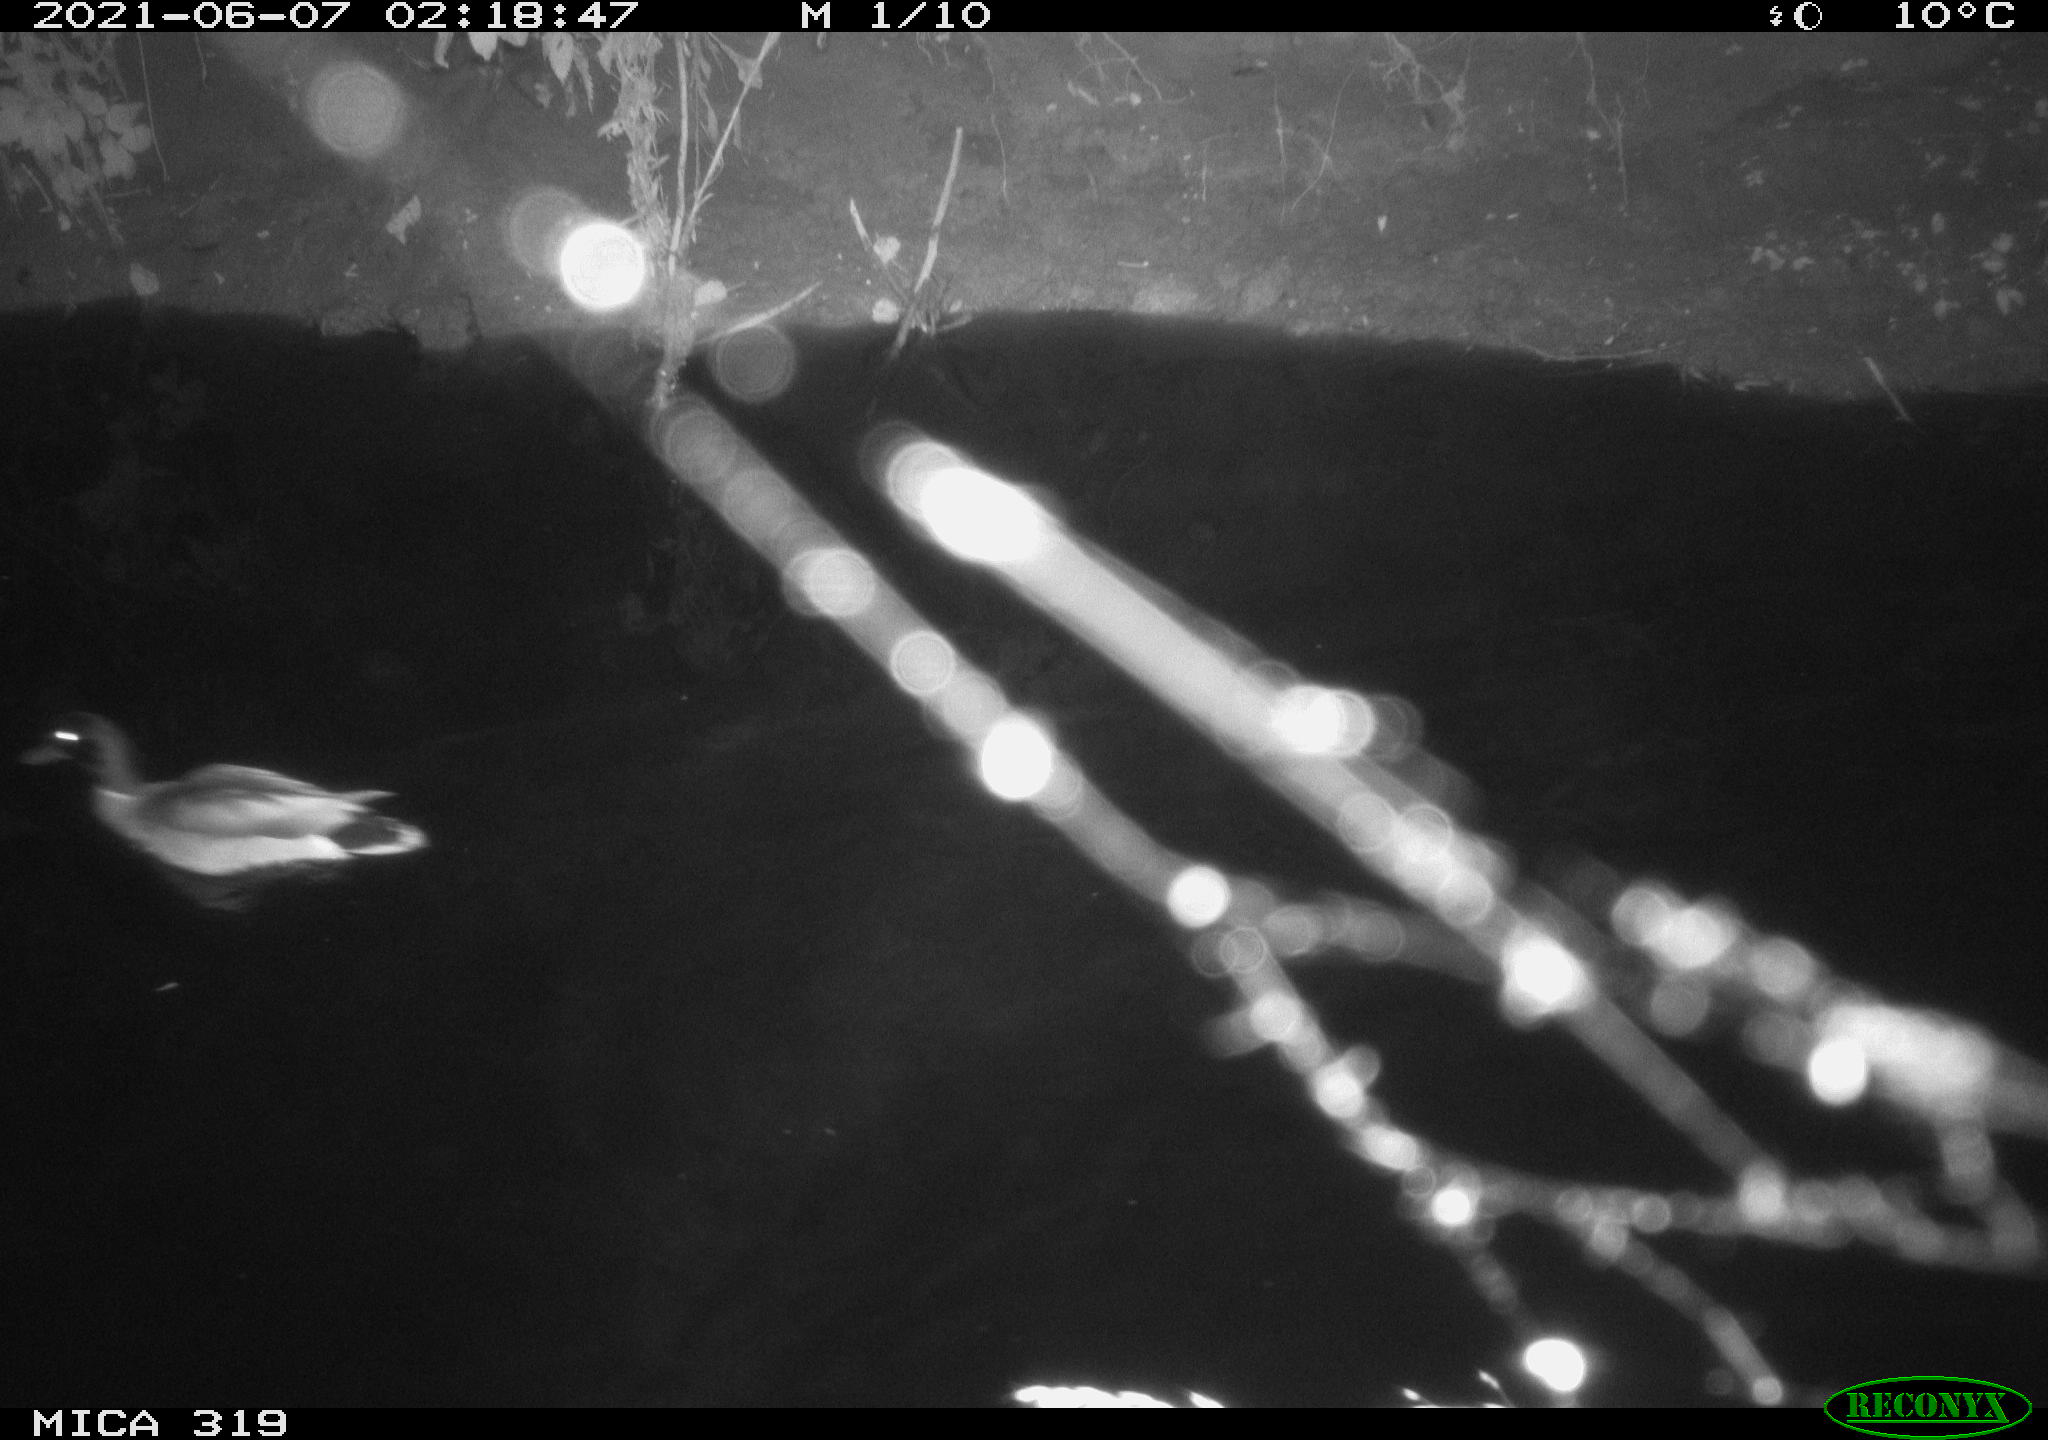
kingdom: Animalia
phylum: Chordata
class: Aves
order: Anseriformes
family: Anatidae
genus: Anas
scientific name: Anas platyrhynchos
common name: Mallard
